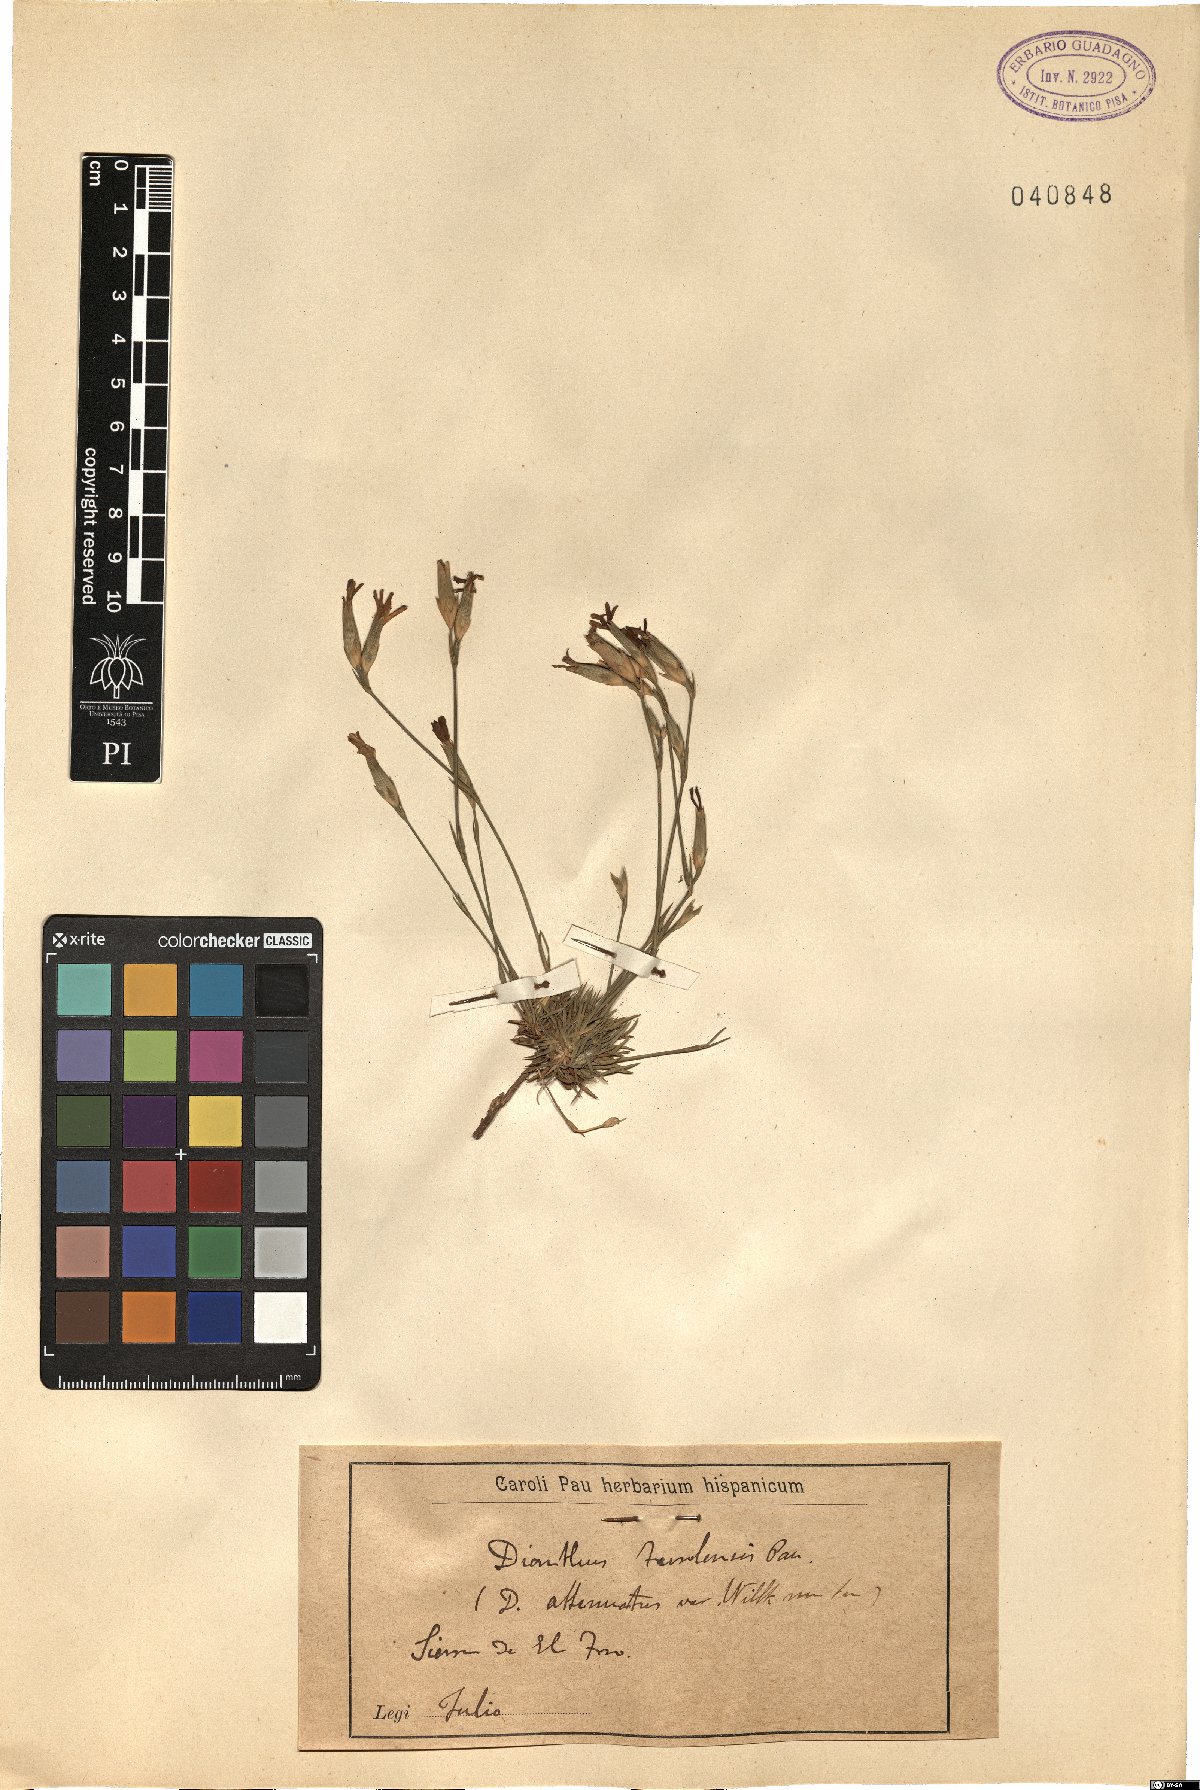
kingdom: Plantae
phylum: Tracheophyta
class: Magnoliopsida
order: Caryophyllales
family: Caryophyllaceae
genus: Dianthus
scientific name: Dianthus algetanus
